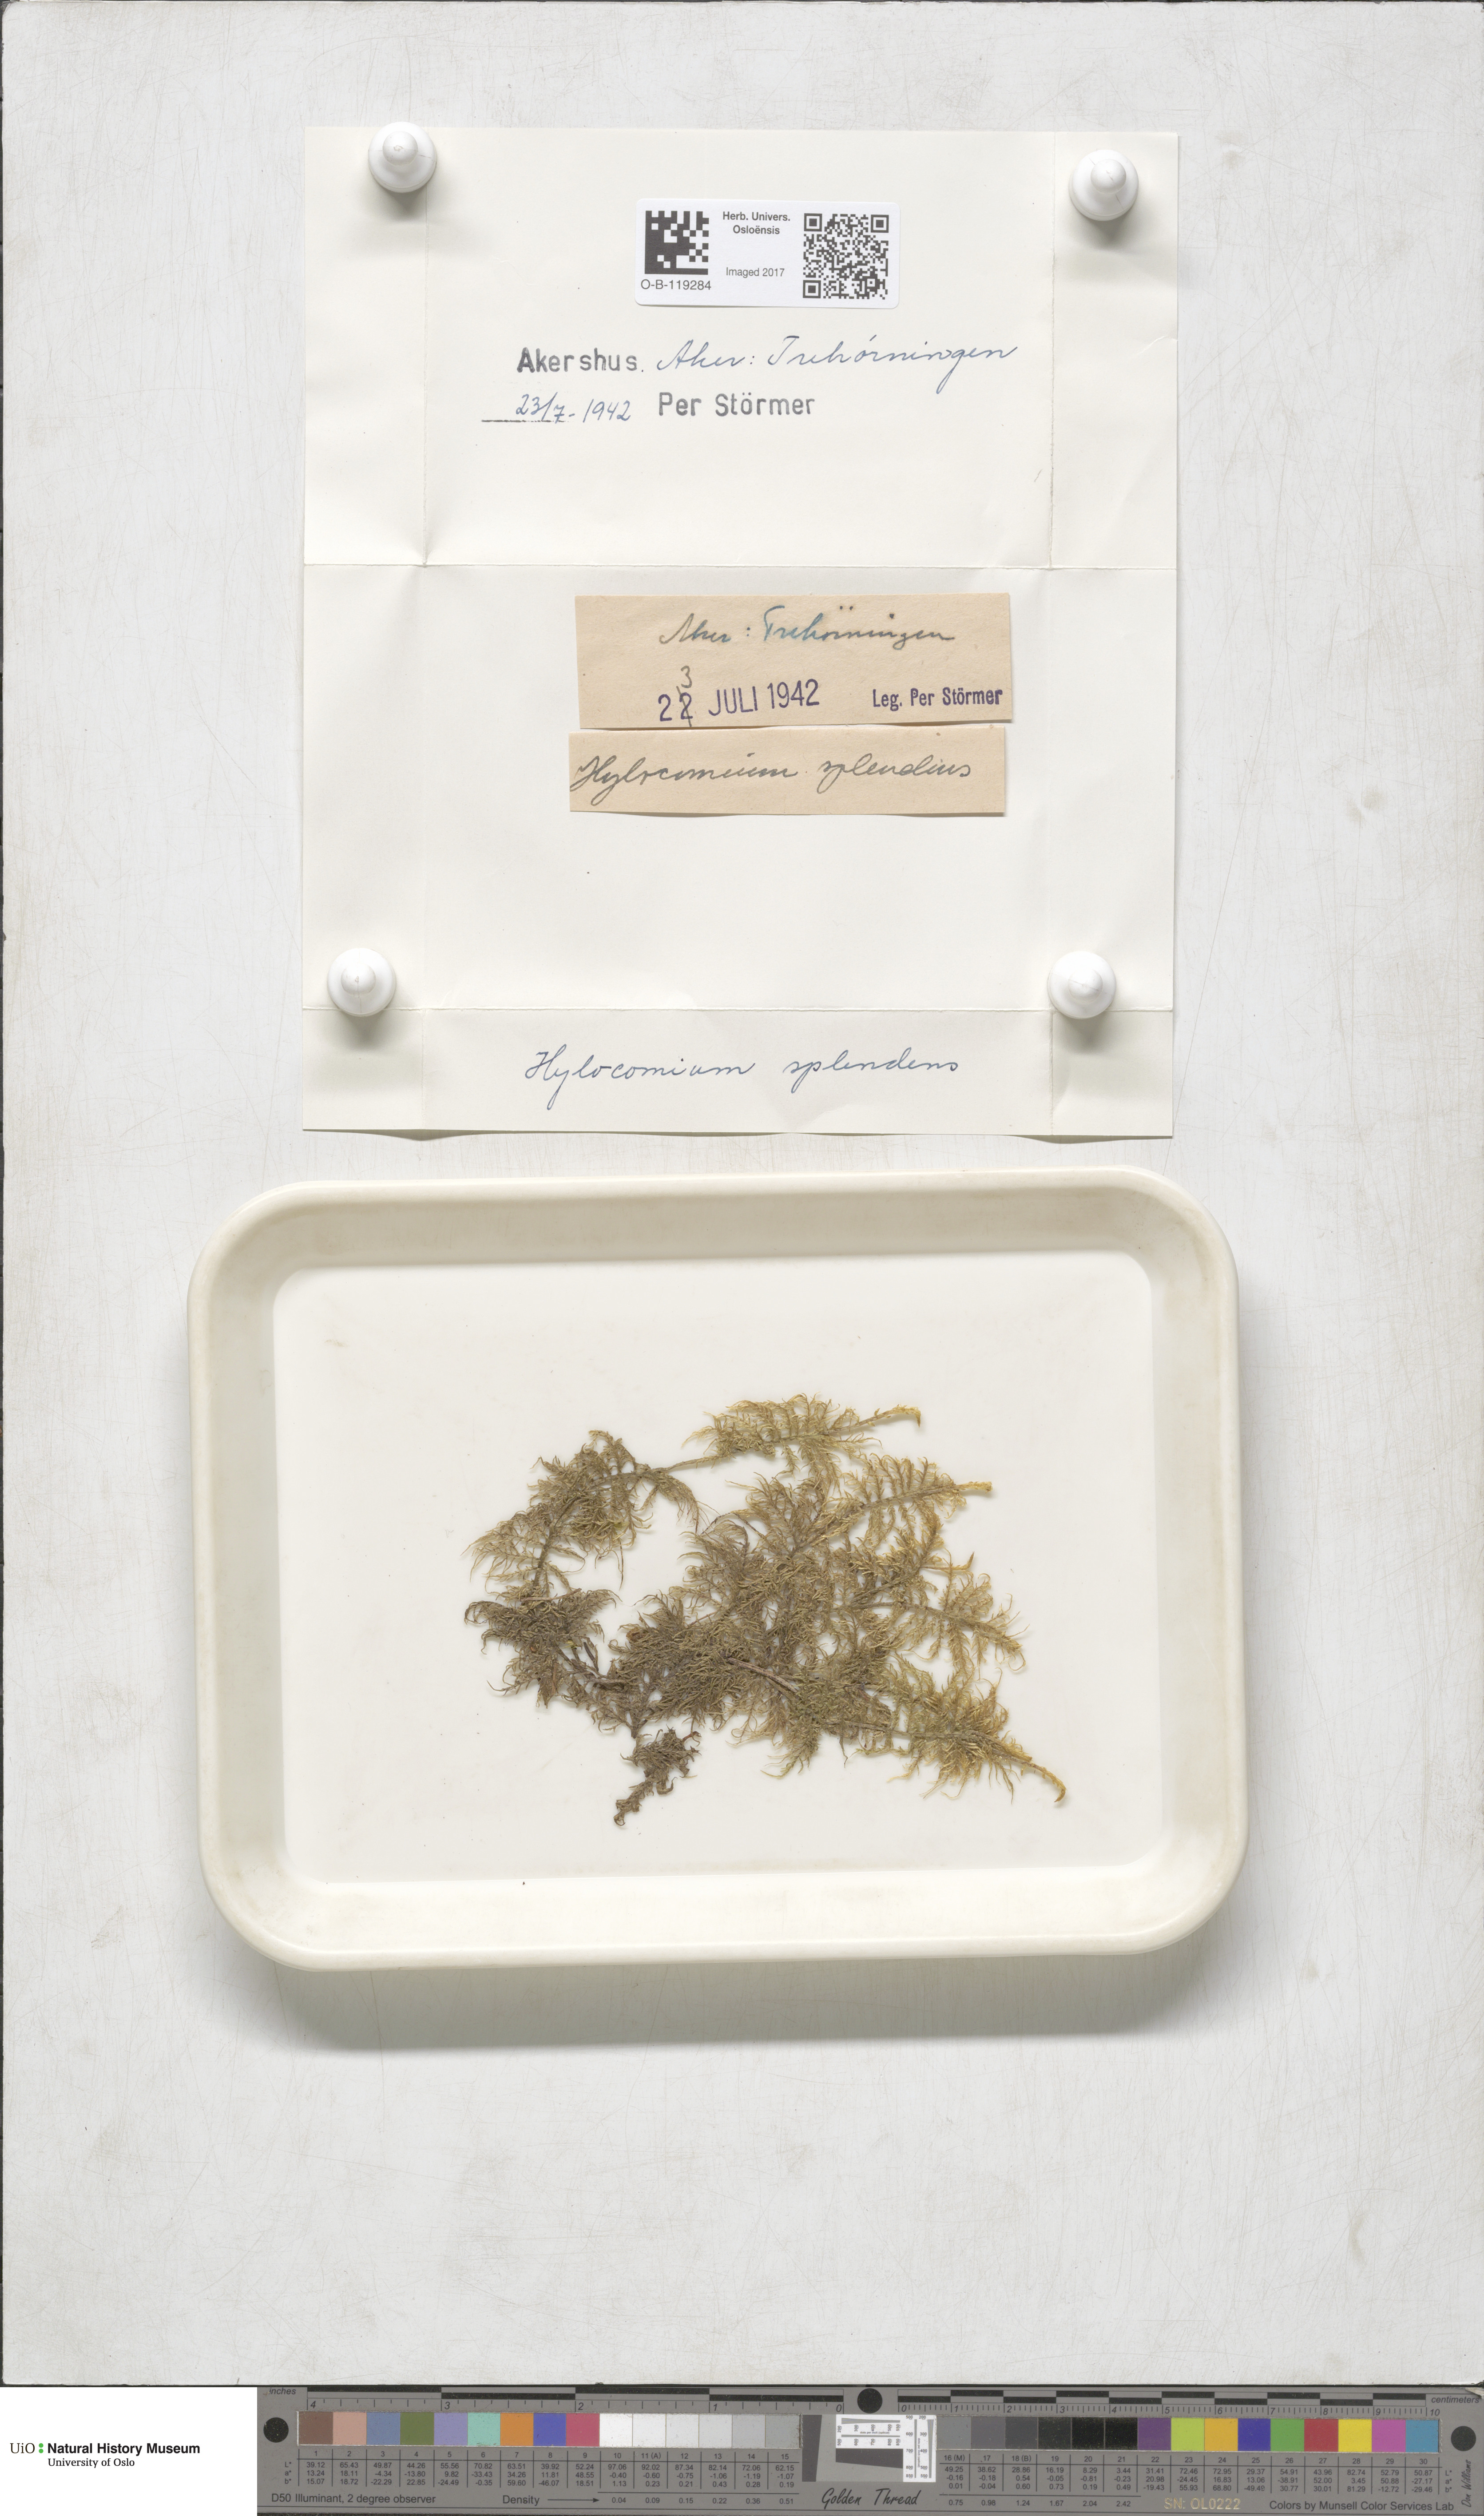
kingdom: Plantae
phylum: Bryophyta
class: Bryopsida
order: Hypnales
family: Hylocomiaceae
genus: Hylocomium
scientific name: Hylocomium splendens
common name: Stairstep moss
